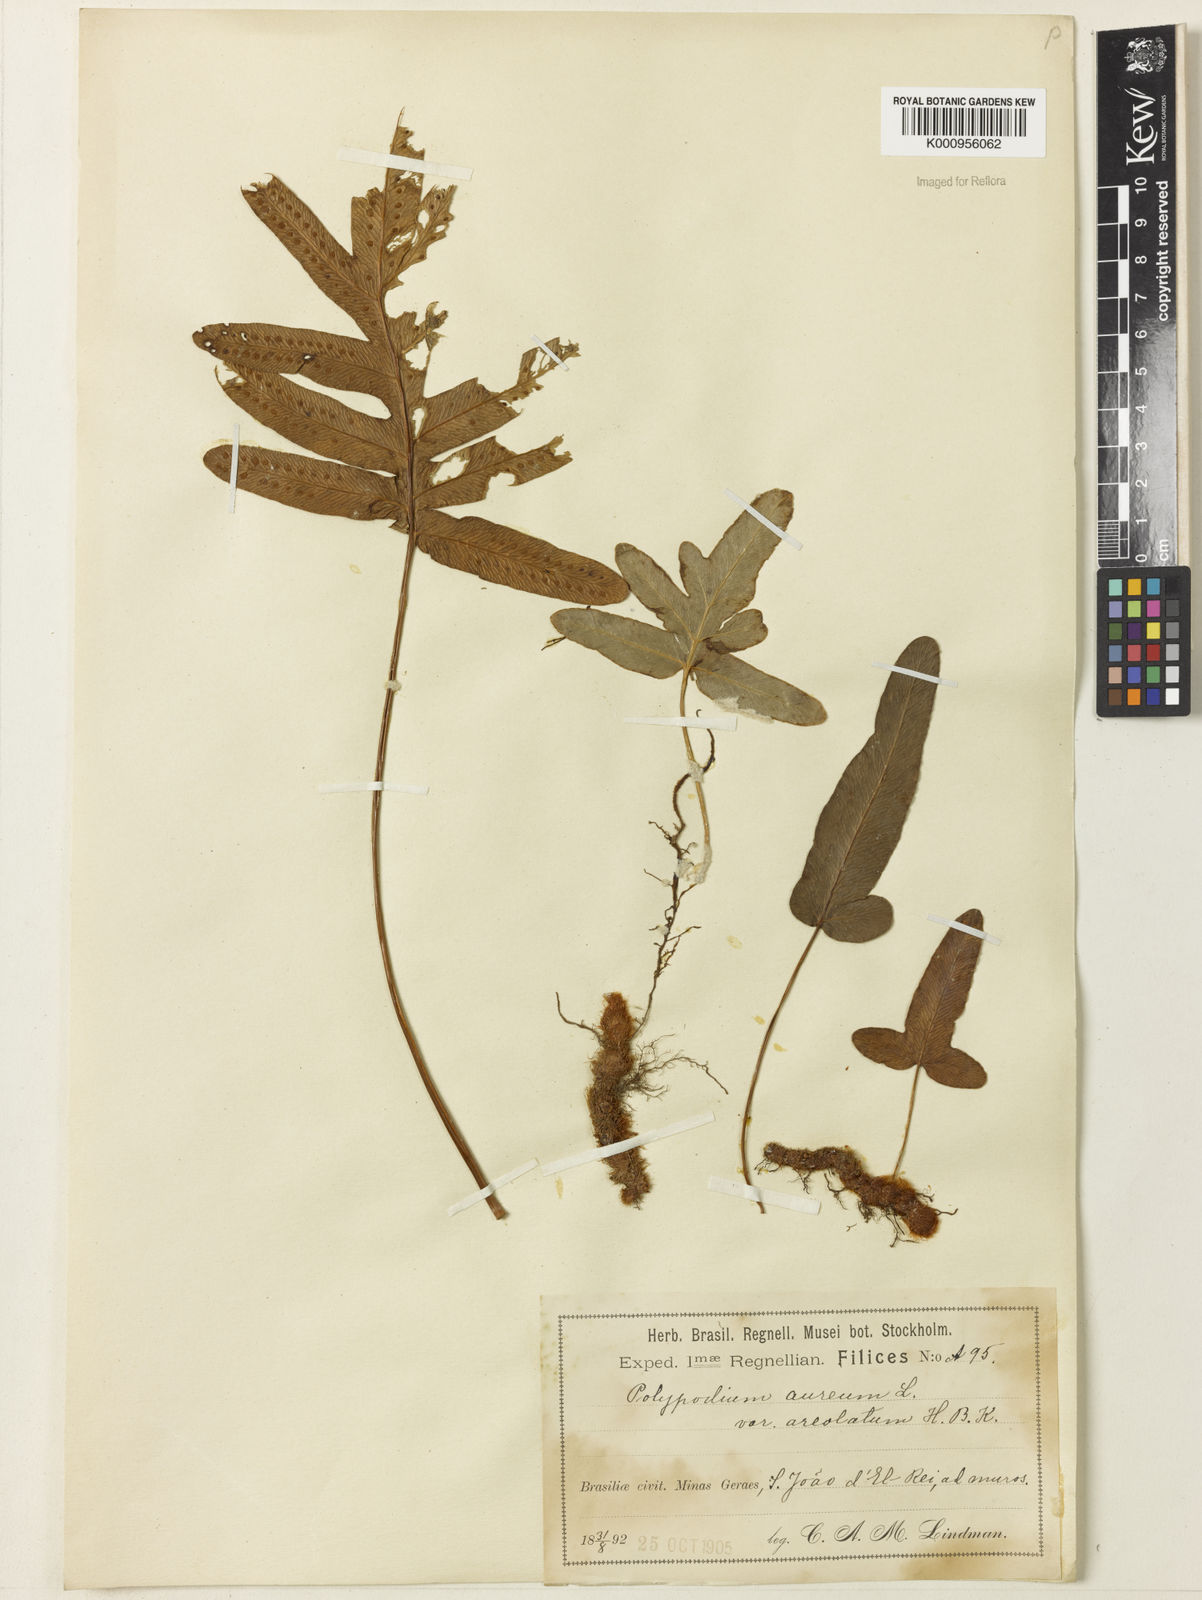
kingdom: Plantae
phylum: Tracheophyta
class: Polypodiopsida
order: Polypodiales
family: Polypodiaceae
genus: Phlebodium
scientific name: Phlebodium aureum
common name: Gold-foot fern
